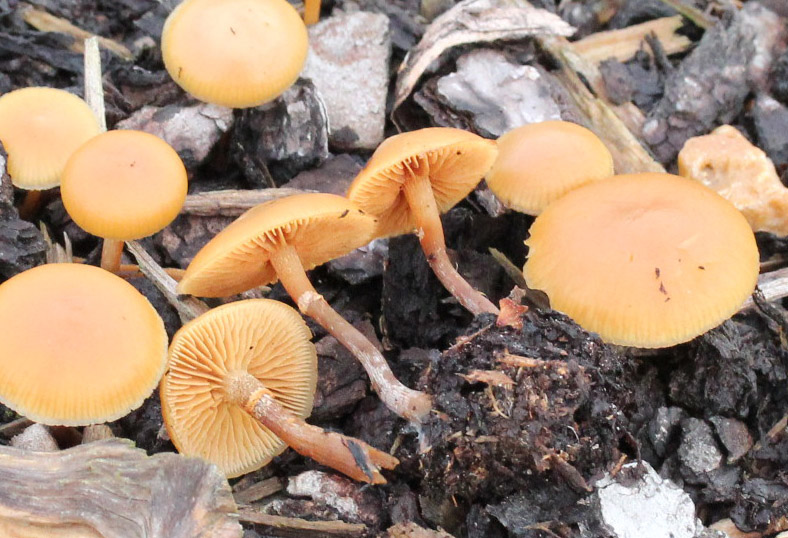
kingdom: Fungi
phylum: Basidiomycota
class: Agaricomycetes
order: Agaricales
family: Hymenogastraceae
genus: Galerina
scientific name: Galerina marginata
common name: randbæltet hjelmhat
